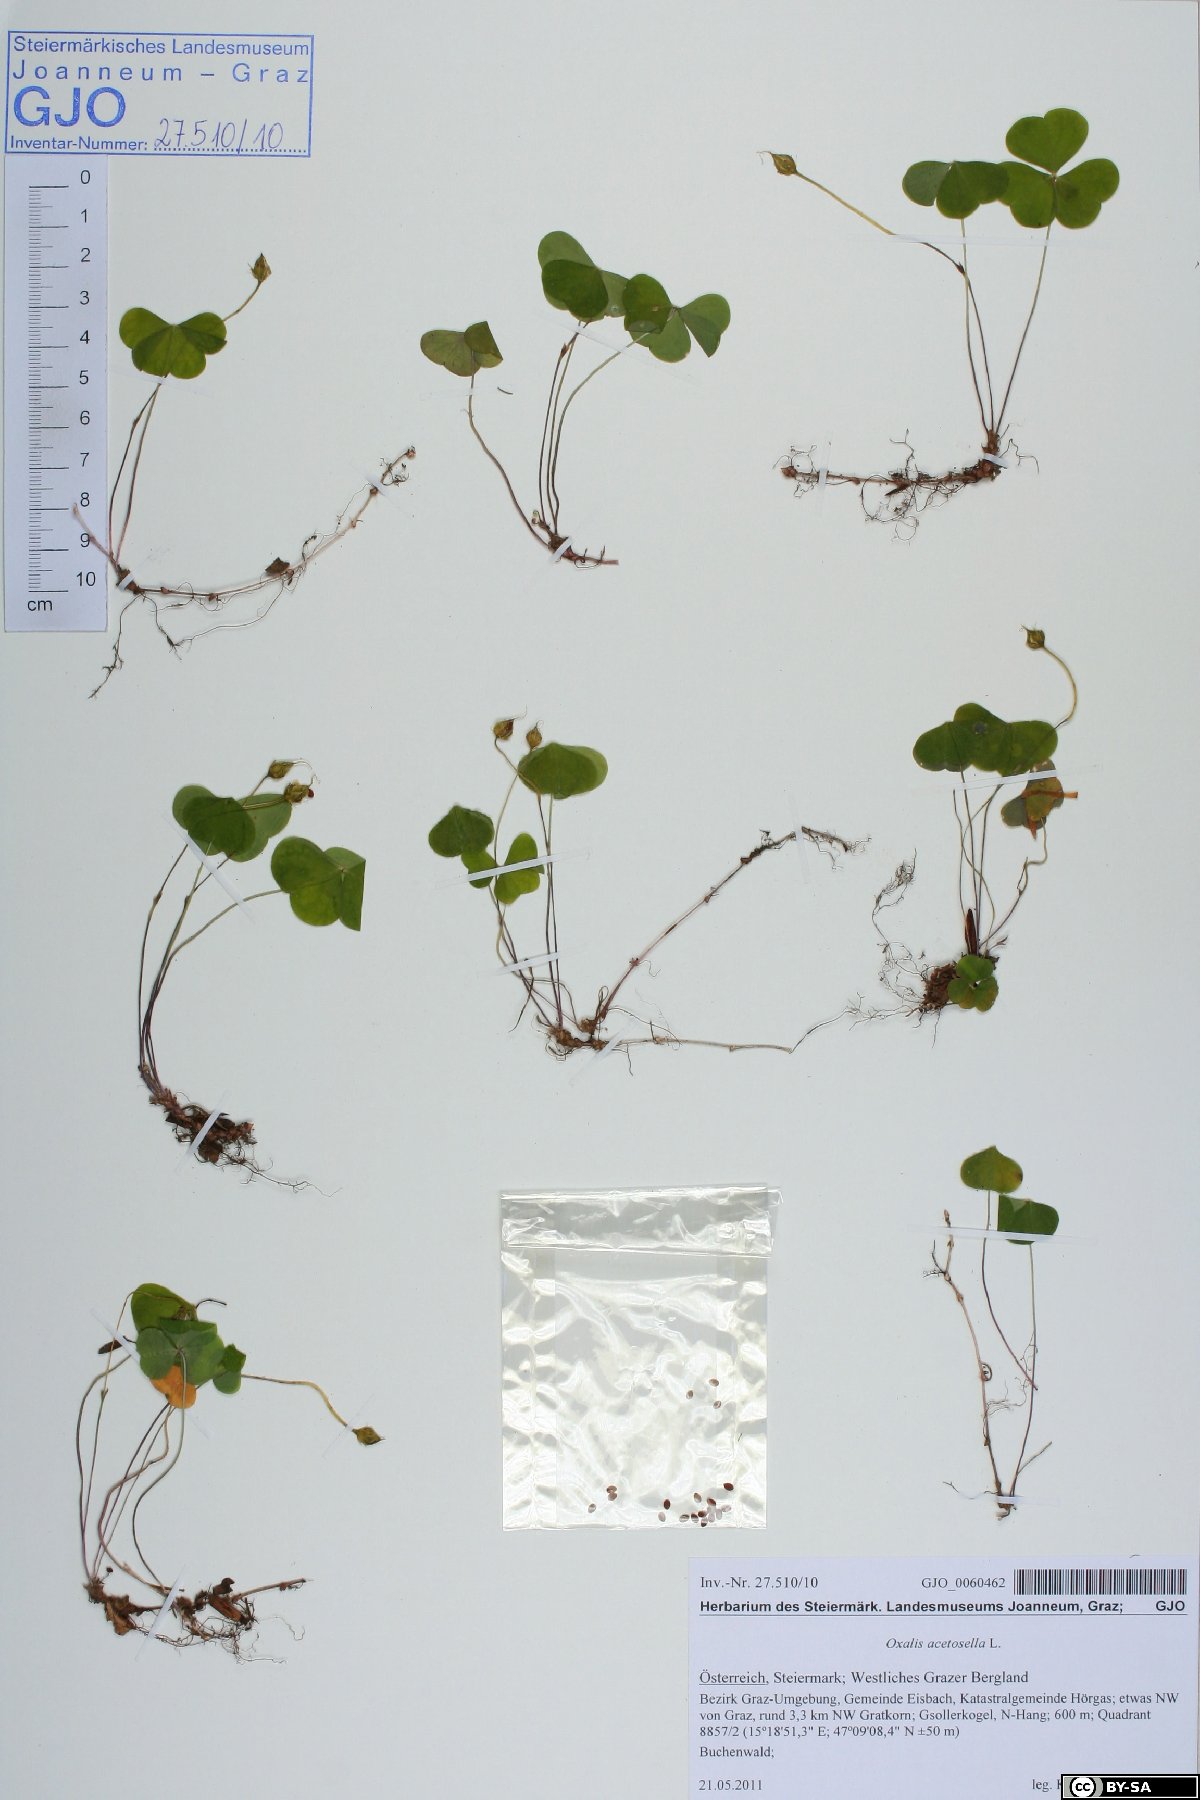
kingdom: Plantae
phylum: Tracheophyta
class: Magnoliopsida
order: Oxalidales
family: Oxalidaceae
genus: Oxalis
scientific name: Oxalis acetosella
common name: Wood-sorrel
